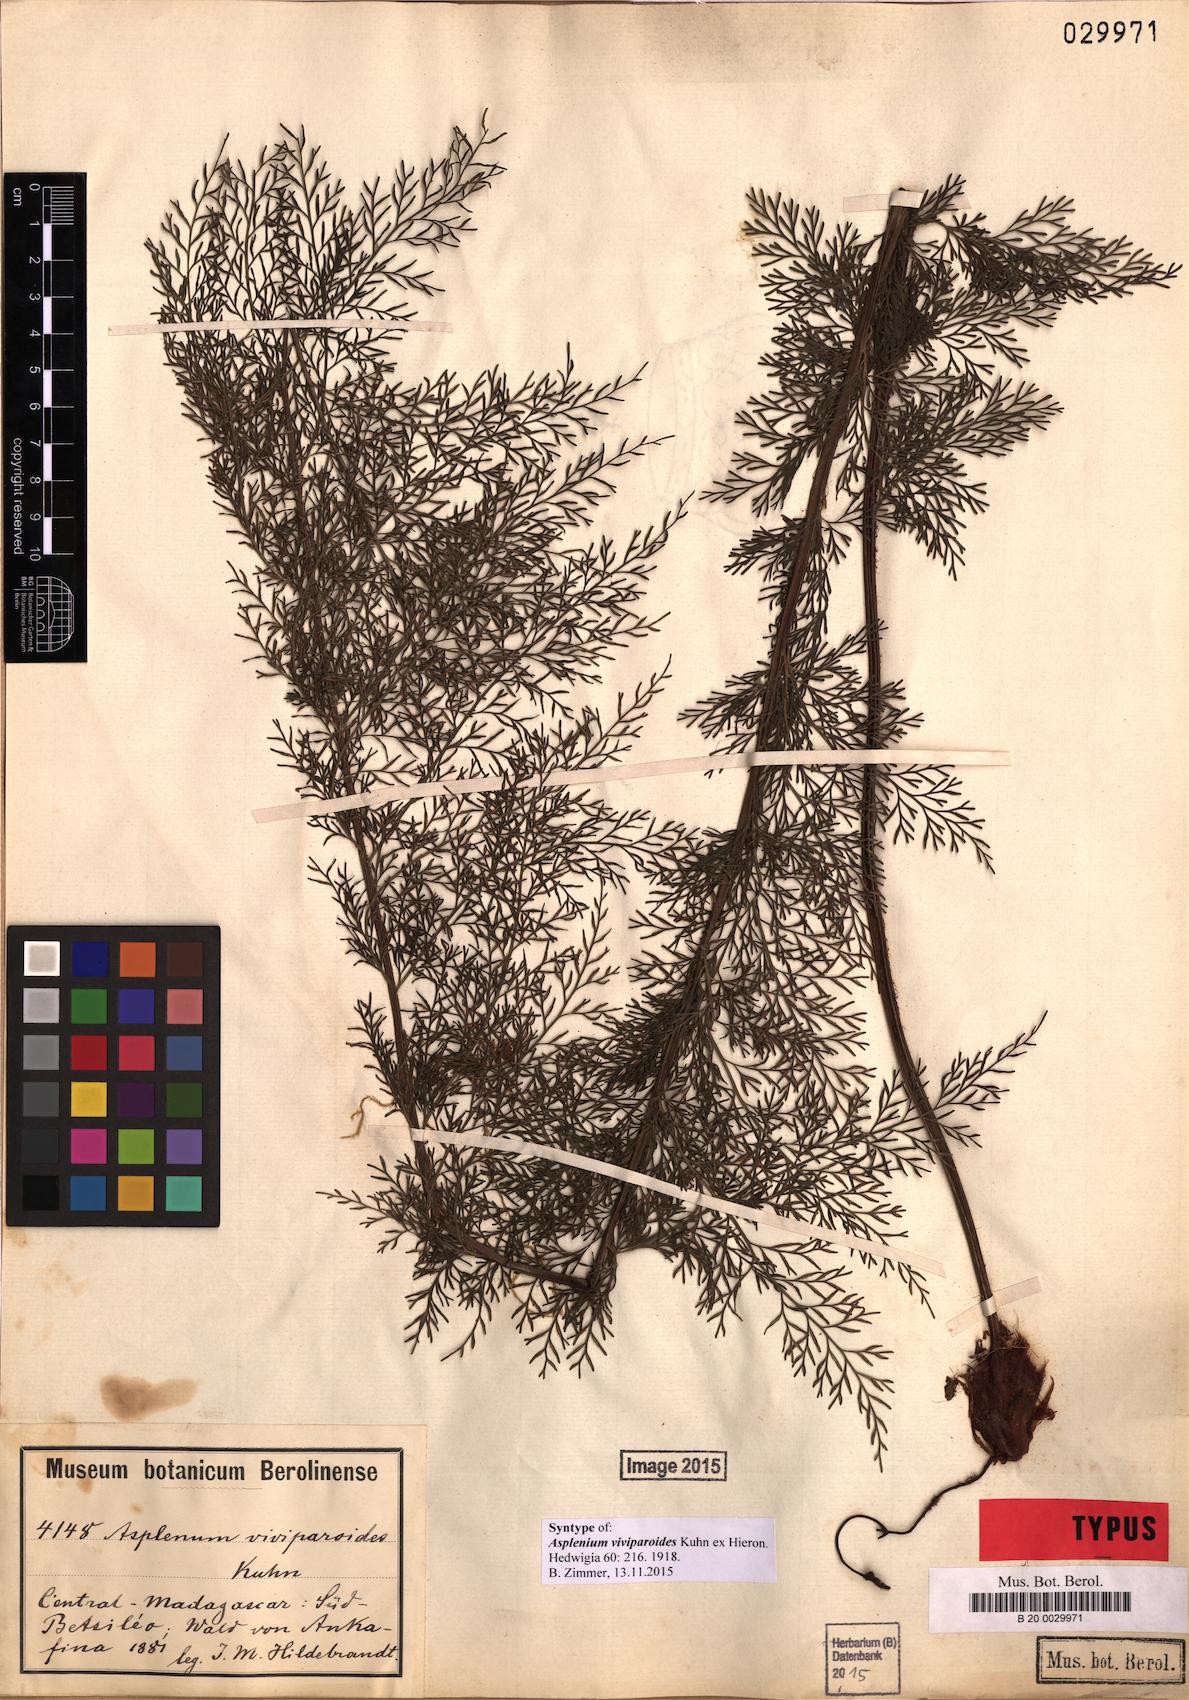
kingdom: Plantae
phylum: Tracheophyta
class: Polypodiopsida
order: Polypodiales
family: Aspleniaceae
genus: Asplenium
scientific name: Asplenium viviparioides
